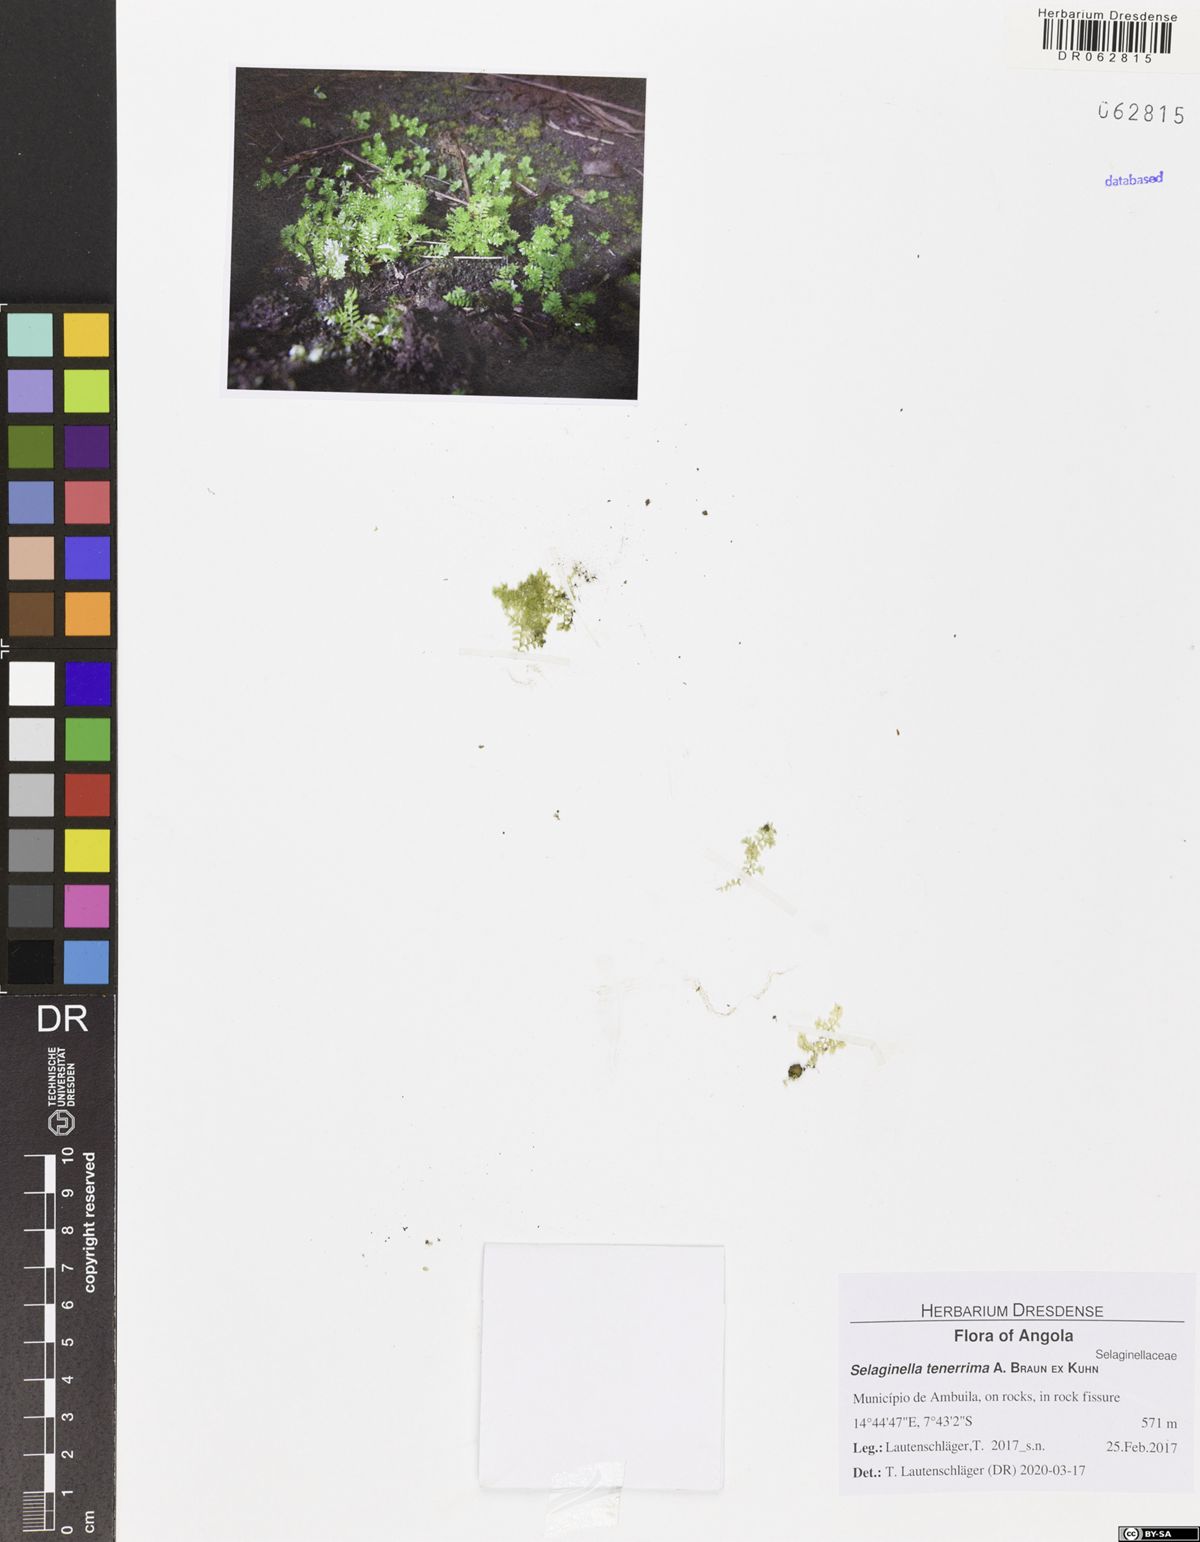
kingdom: Plantae
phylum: Tracheophyta
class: Lycopodiopsida
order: Selaginellales
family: Selaginellaceae
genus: Selaginella
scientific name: Selaginella tenerrima
